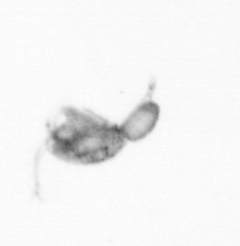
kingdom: Animalia
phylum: Arthropoda
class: Copepoda
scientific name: Copepoda
